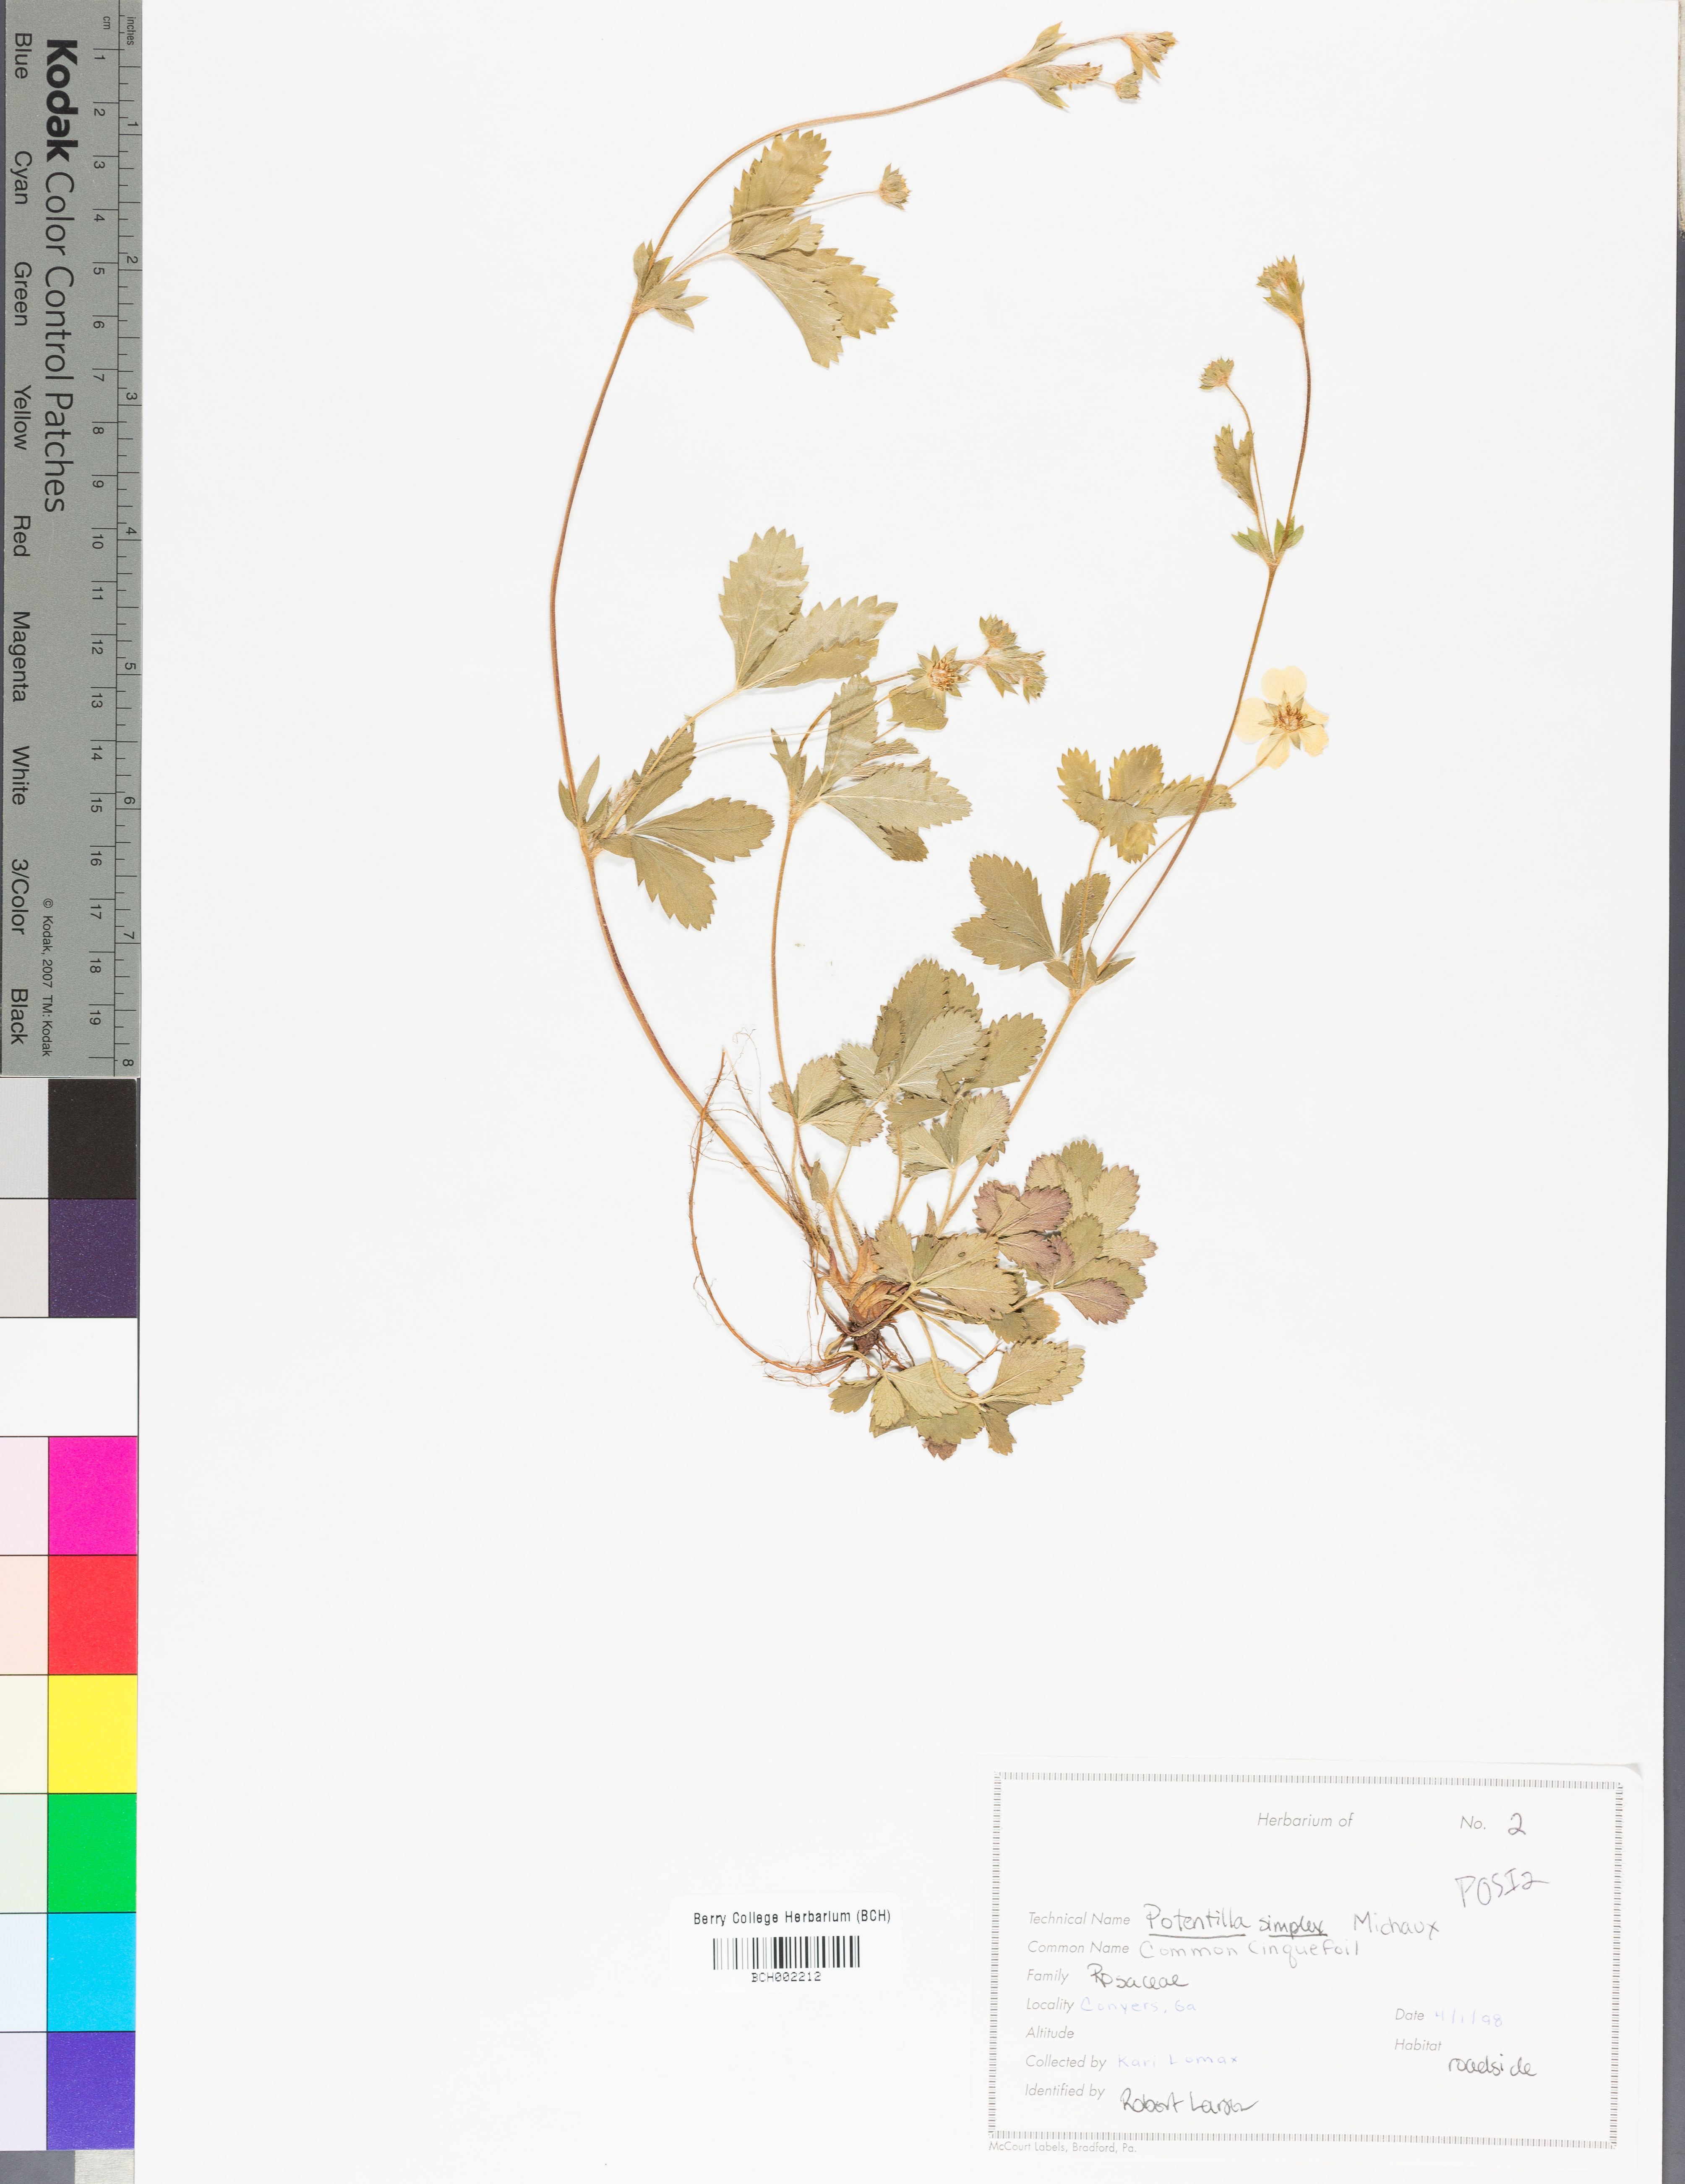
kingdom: Plantae
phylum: Tracheophyta
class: Magnoliopsida
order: Rosales
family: Rosaceae
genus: Potentilla
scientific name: Potentilla simplex
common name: Old field cinquefoil
